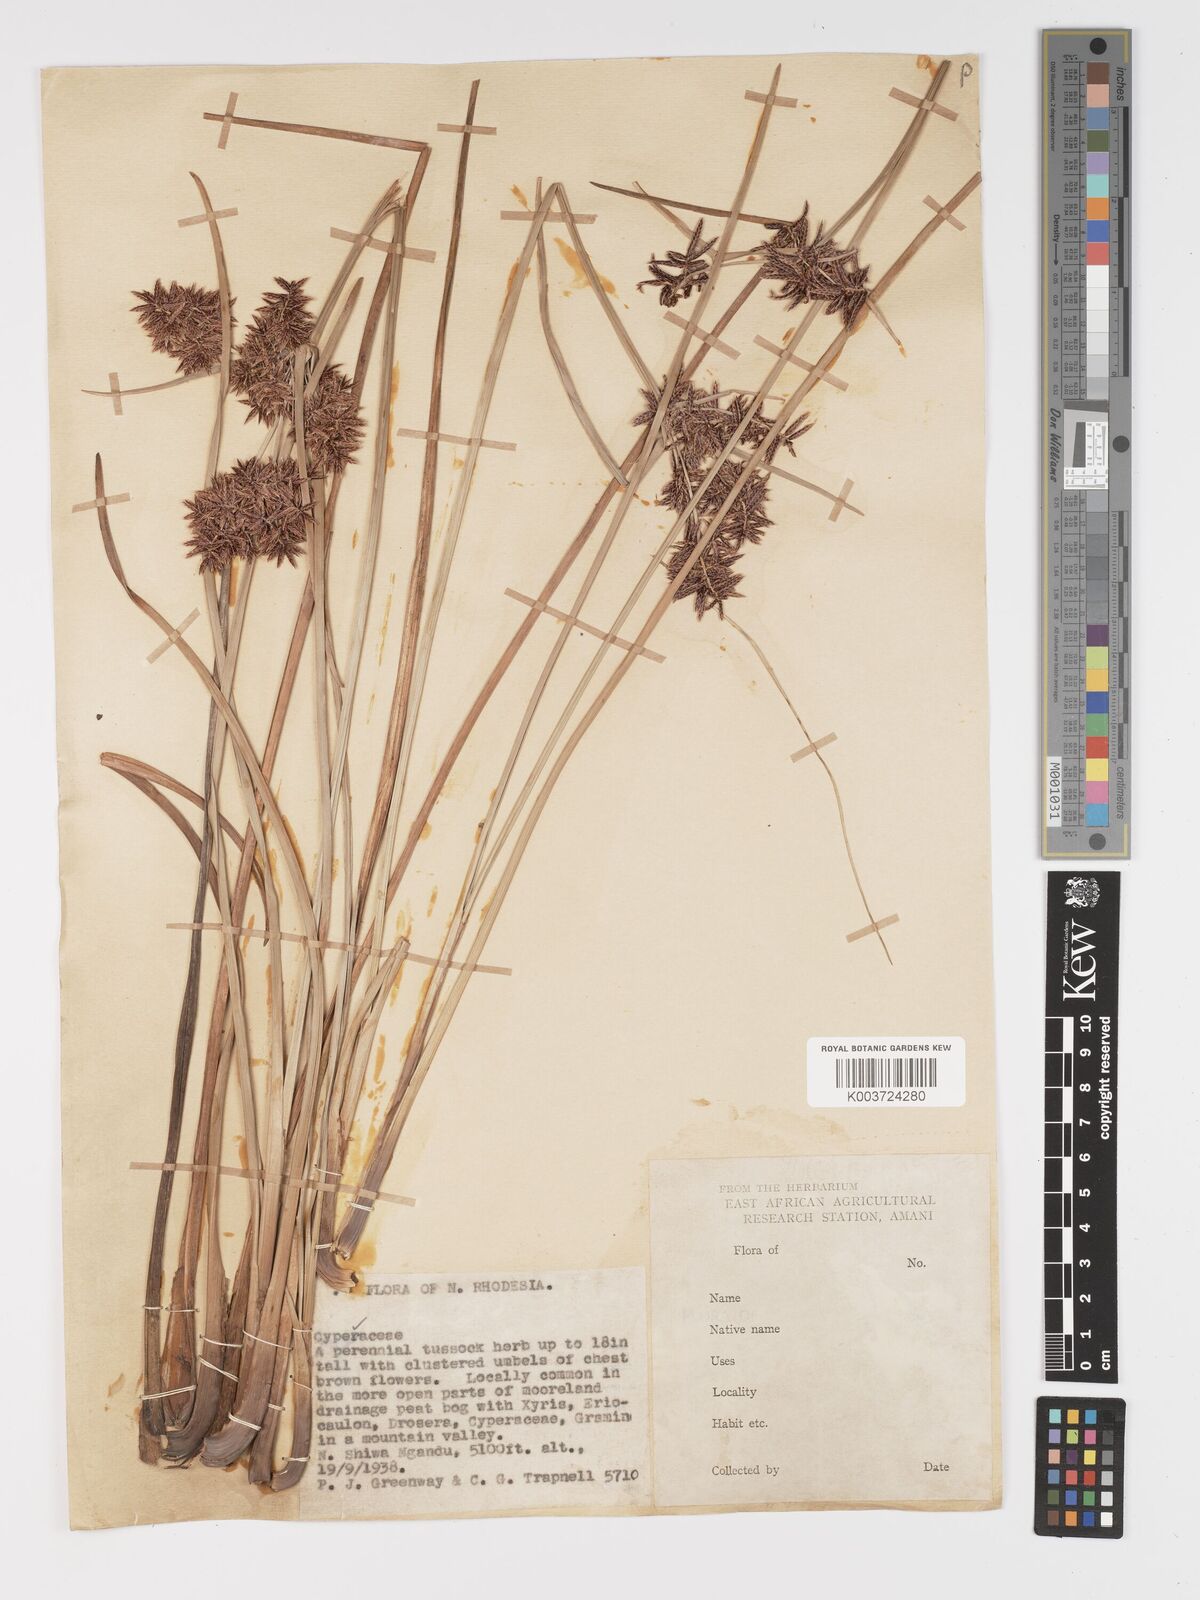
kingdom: Plantae
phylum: Tracheophyta
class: Liliopsida
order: Poales
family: Cyperaceae
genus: Cyperus
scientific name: Cyperus
